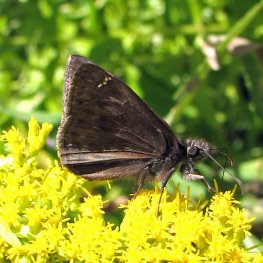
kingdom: Animalia
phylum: Arthropoda
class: Insecta
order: Lepidoptera
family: Hesperiidae
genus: Gesta
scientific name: Gesta
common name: Horace's Duskywing
